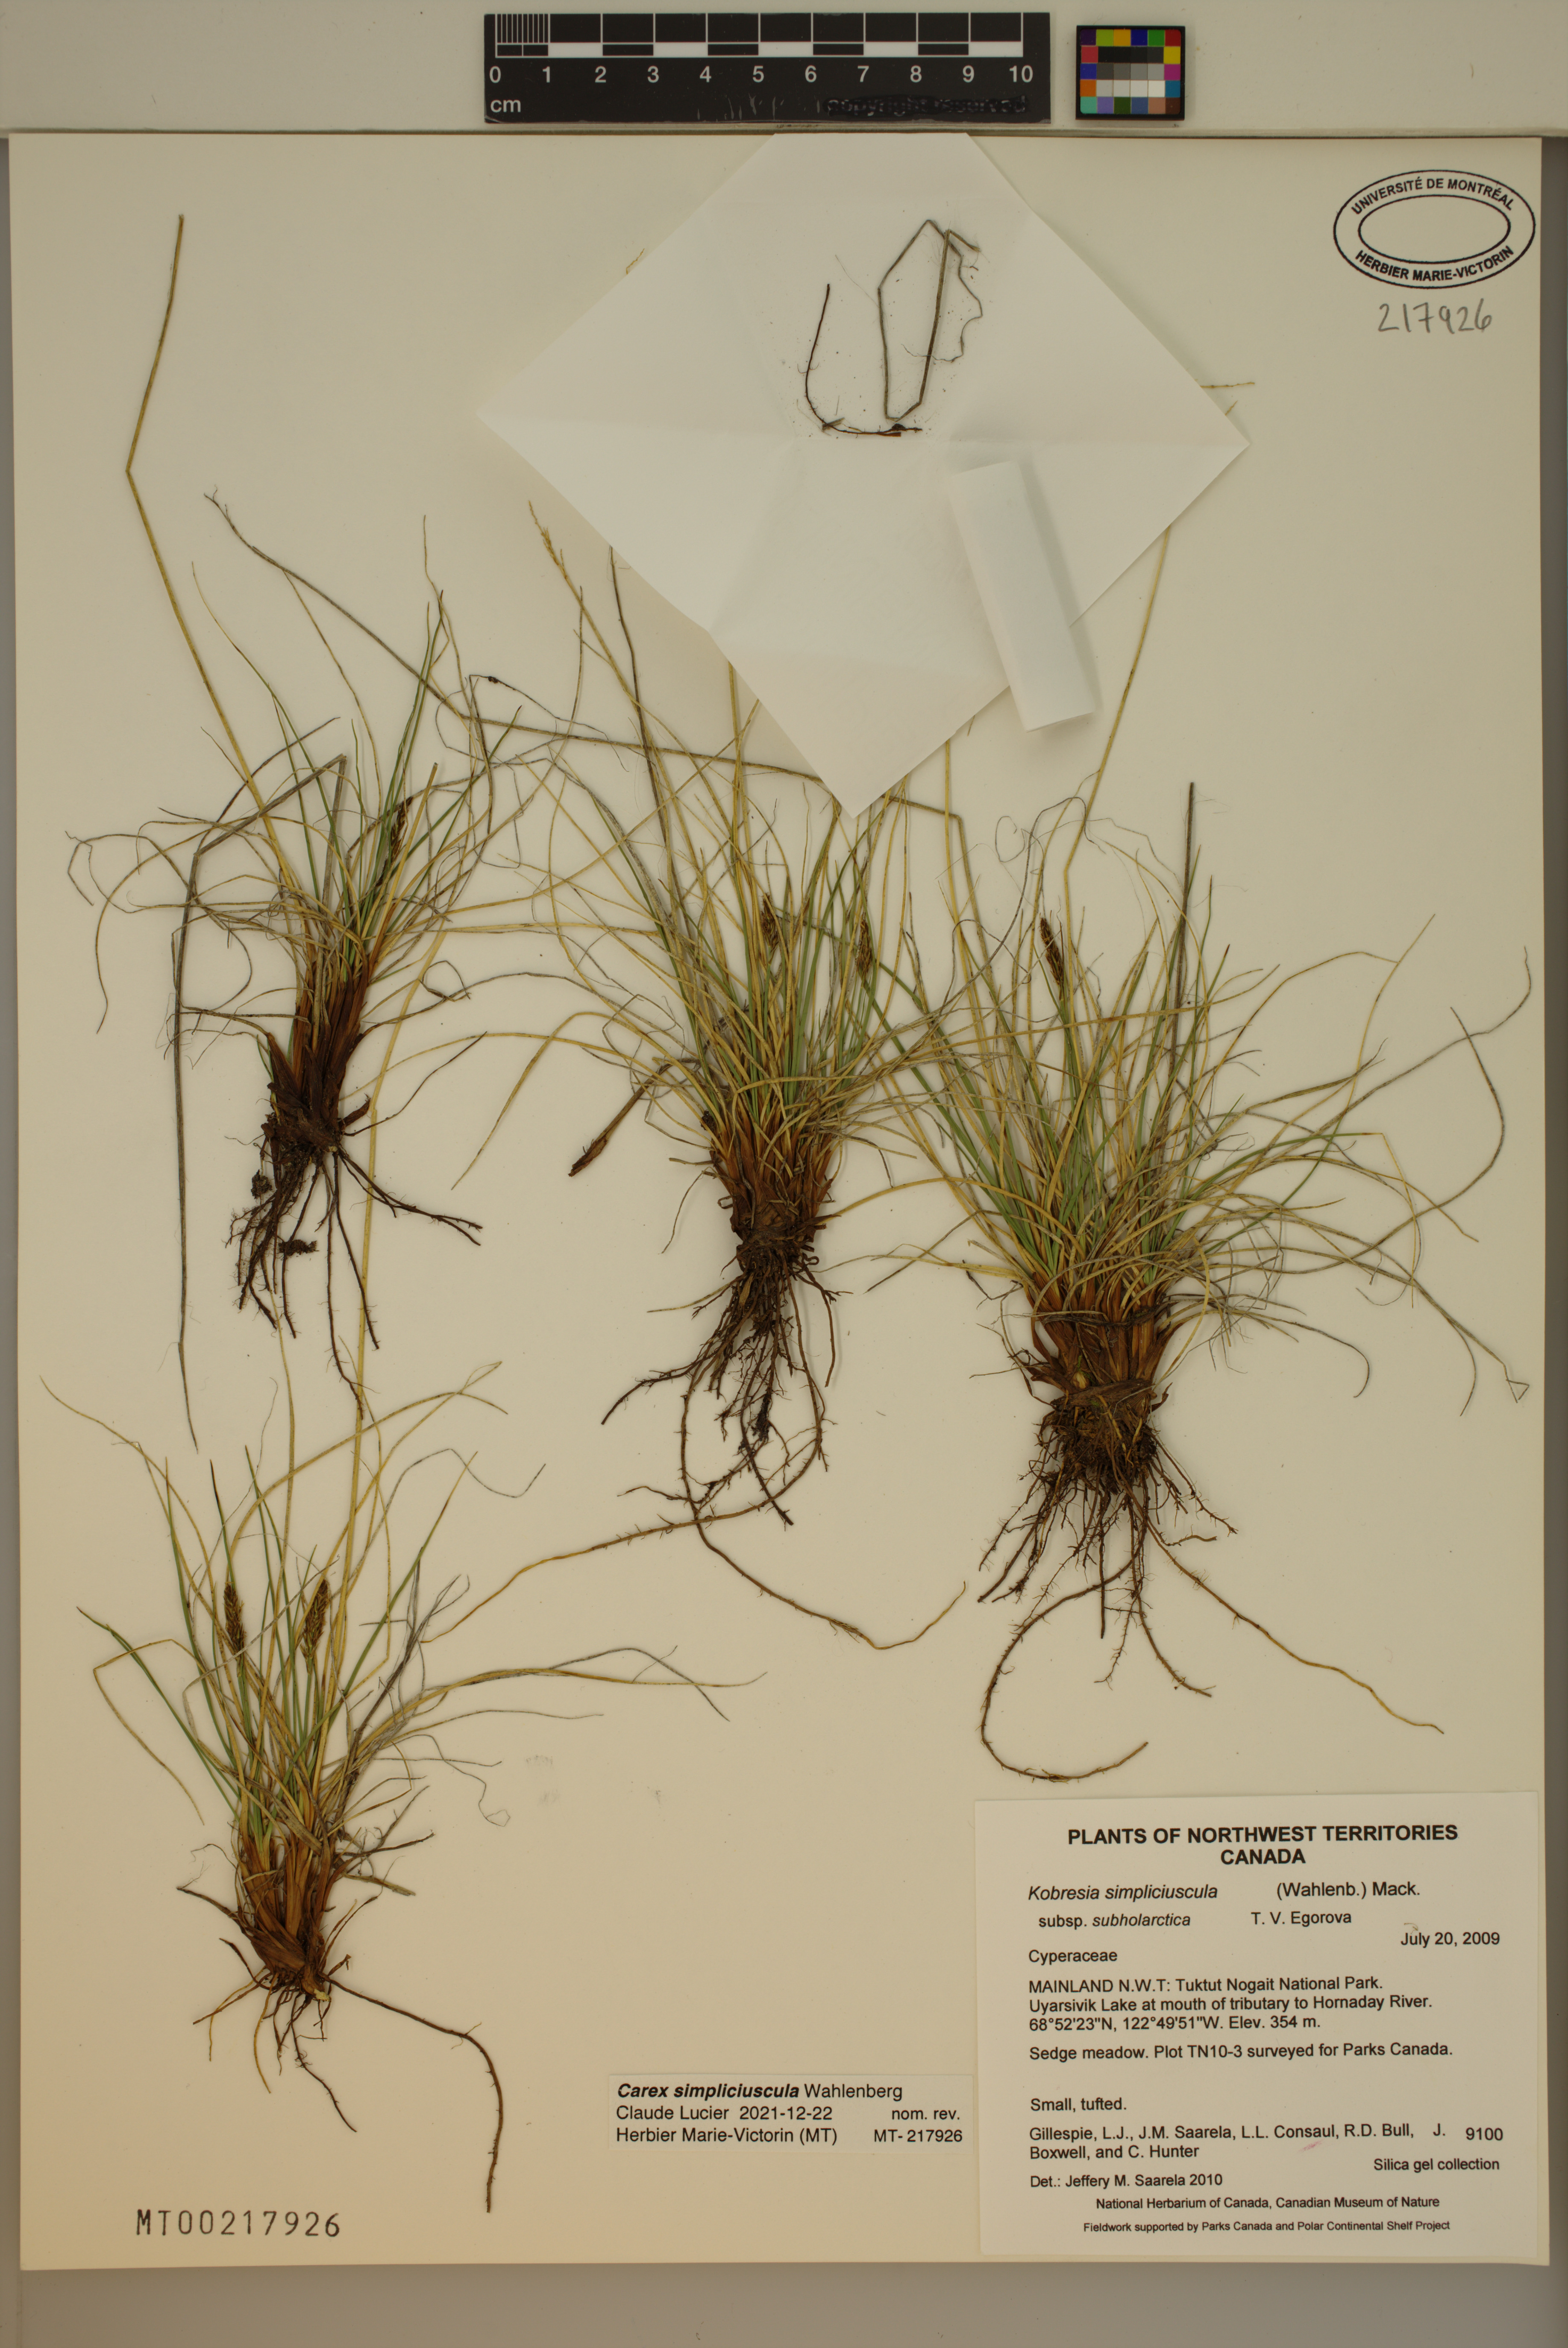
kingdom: Plantae
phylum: Tracheophyta
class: Liliopsida
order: Poales
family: Cyperaceae
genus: Carex
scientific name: Carex simpliciuscula
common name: Simple bog sedge
